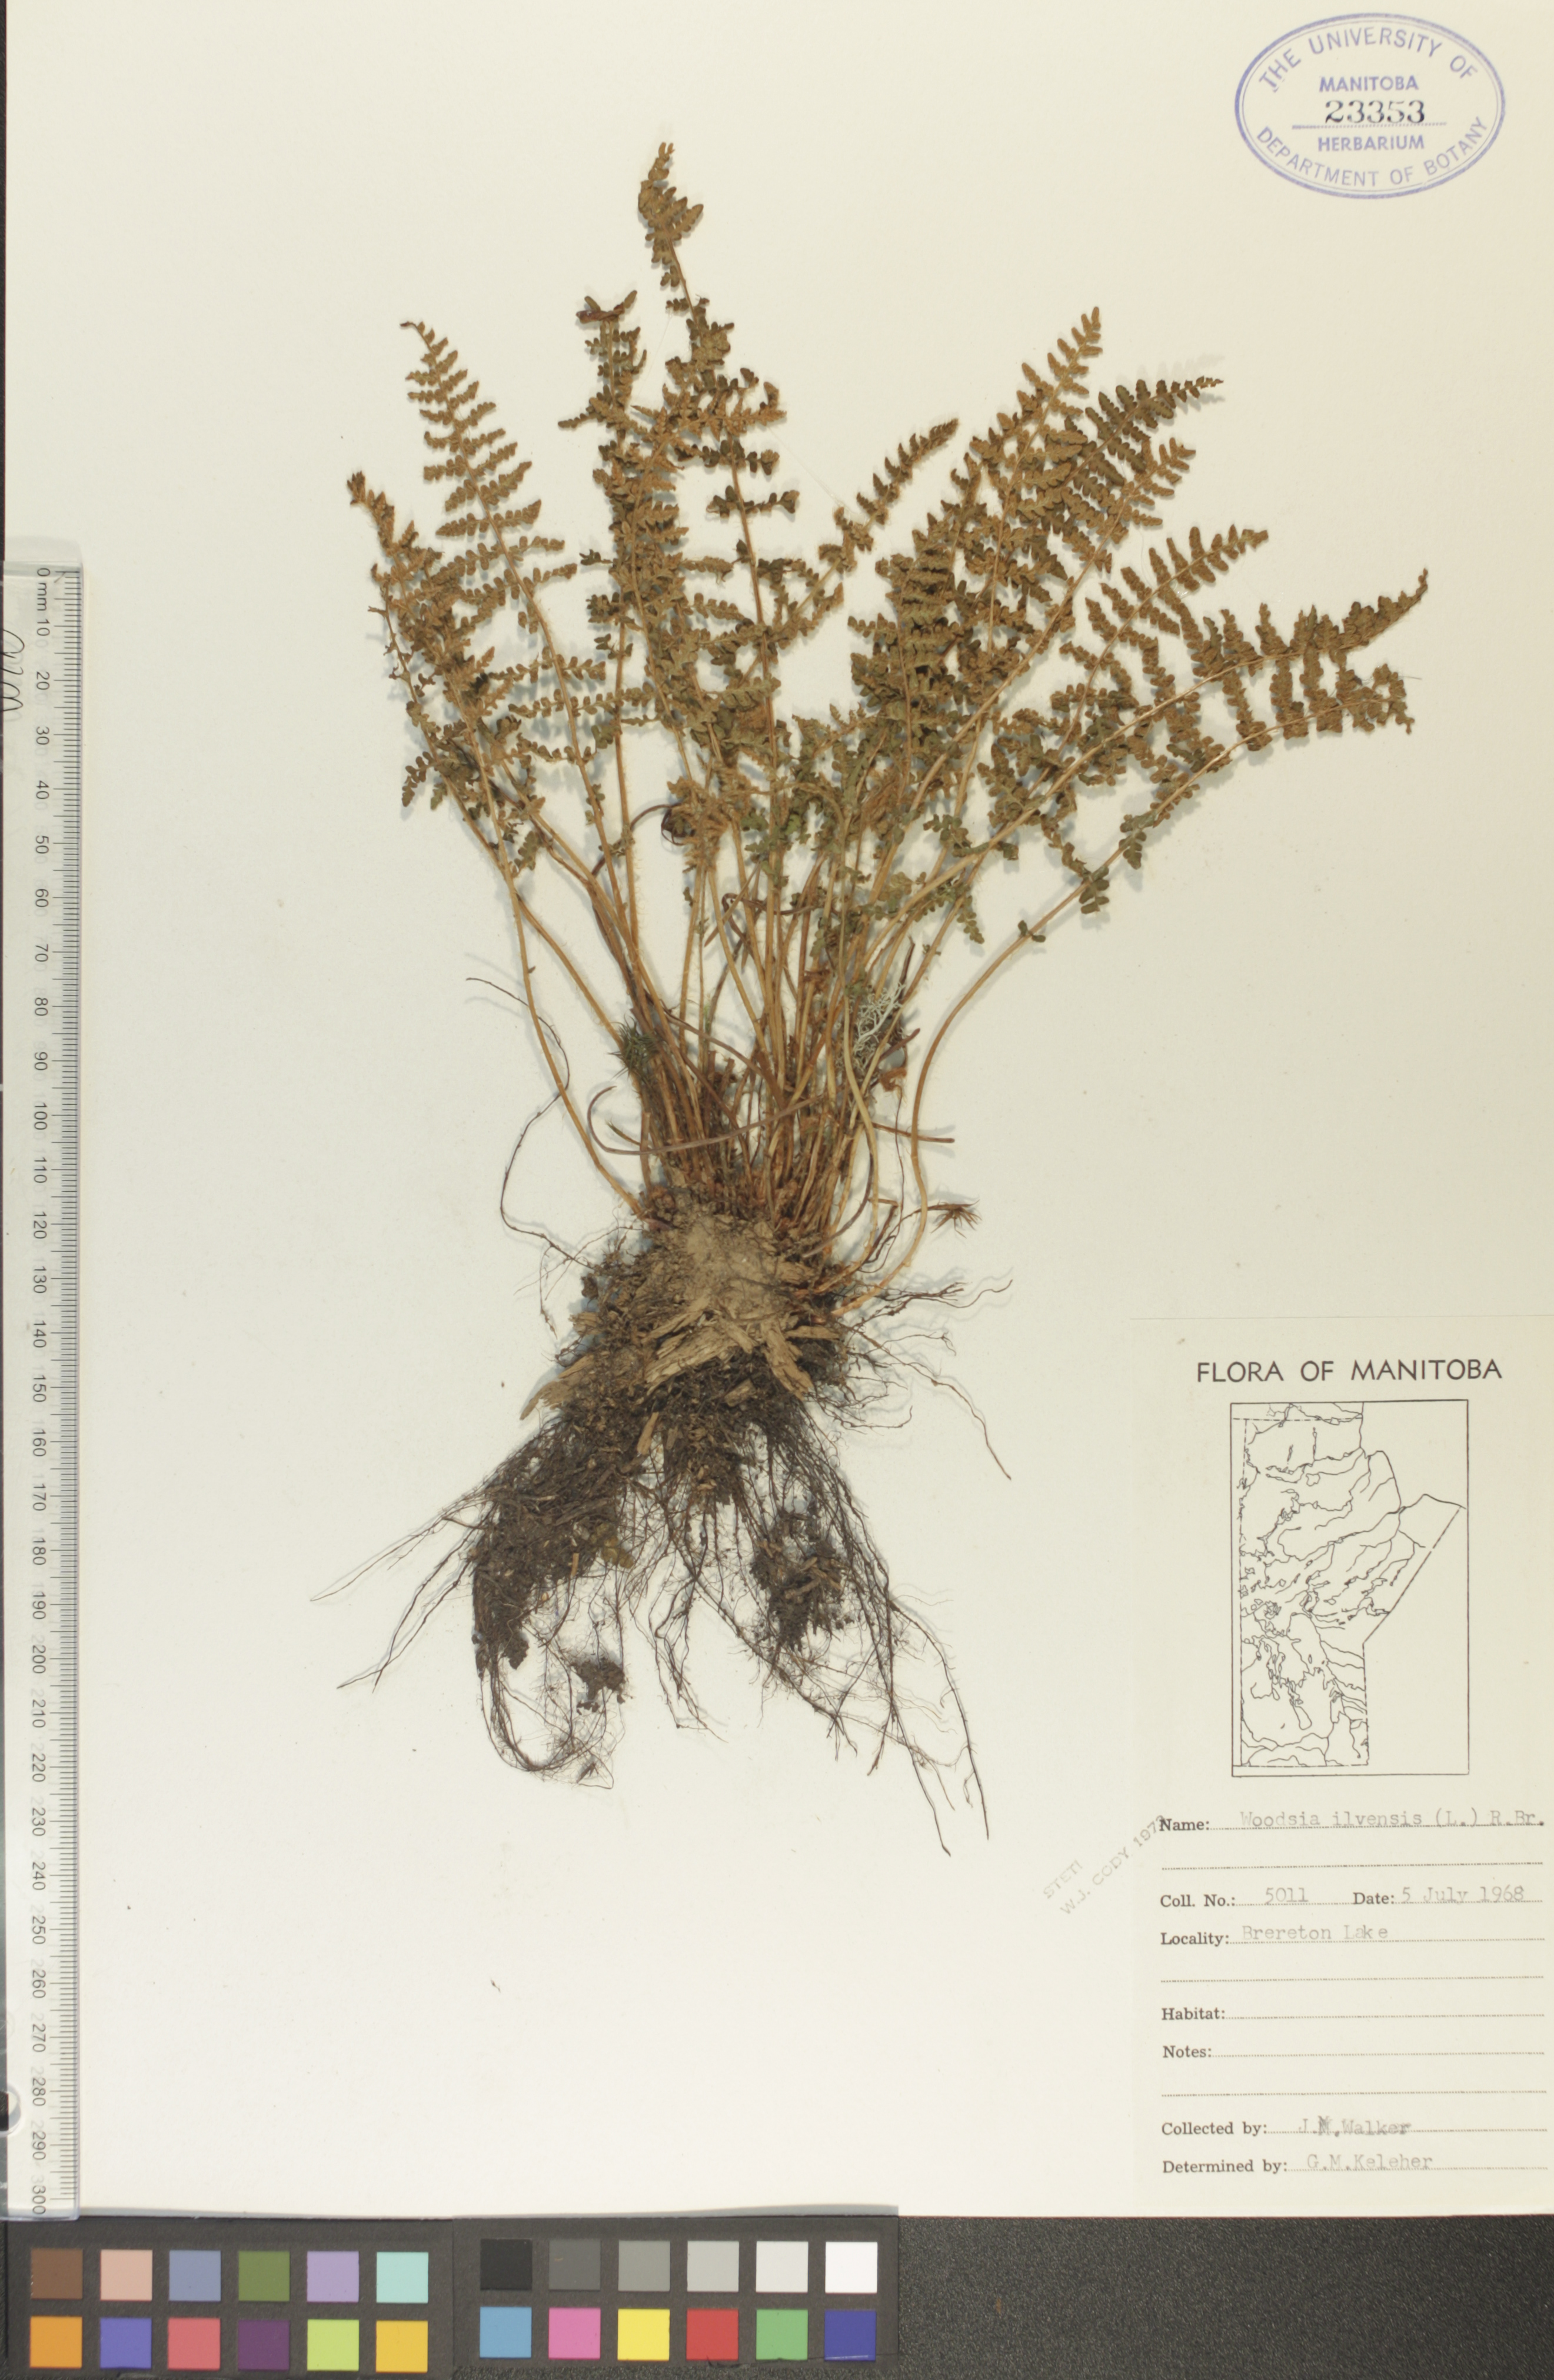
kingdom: Plantae
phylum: Tracheophyta
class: Polypodiopsida
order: Polypodiales
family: Woodsiaceae
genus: Woodsia
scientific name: Woodsia ilvensis
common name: Fragrant woodsia
